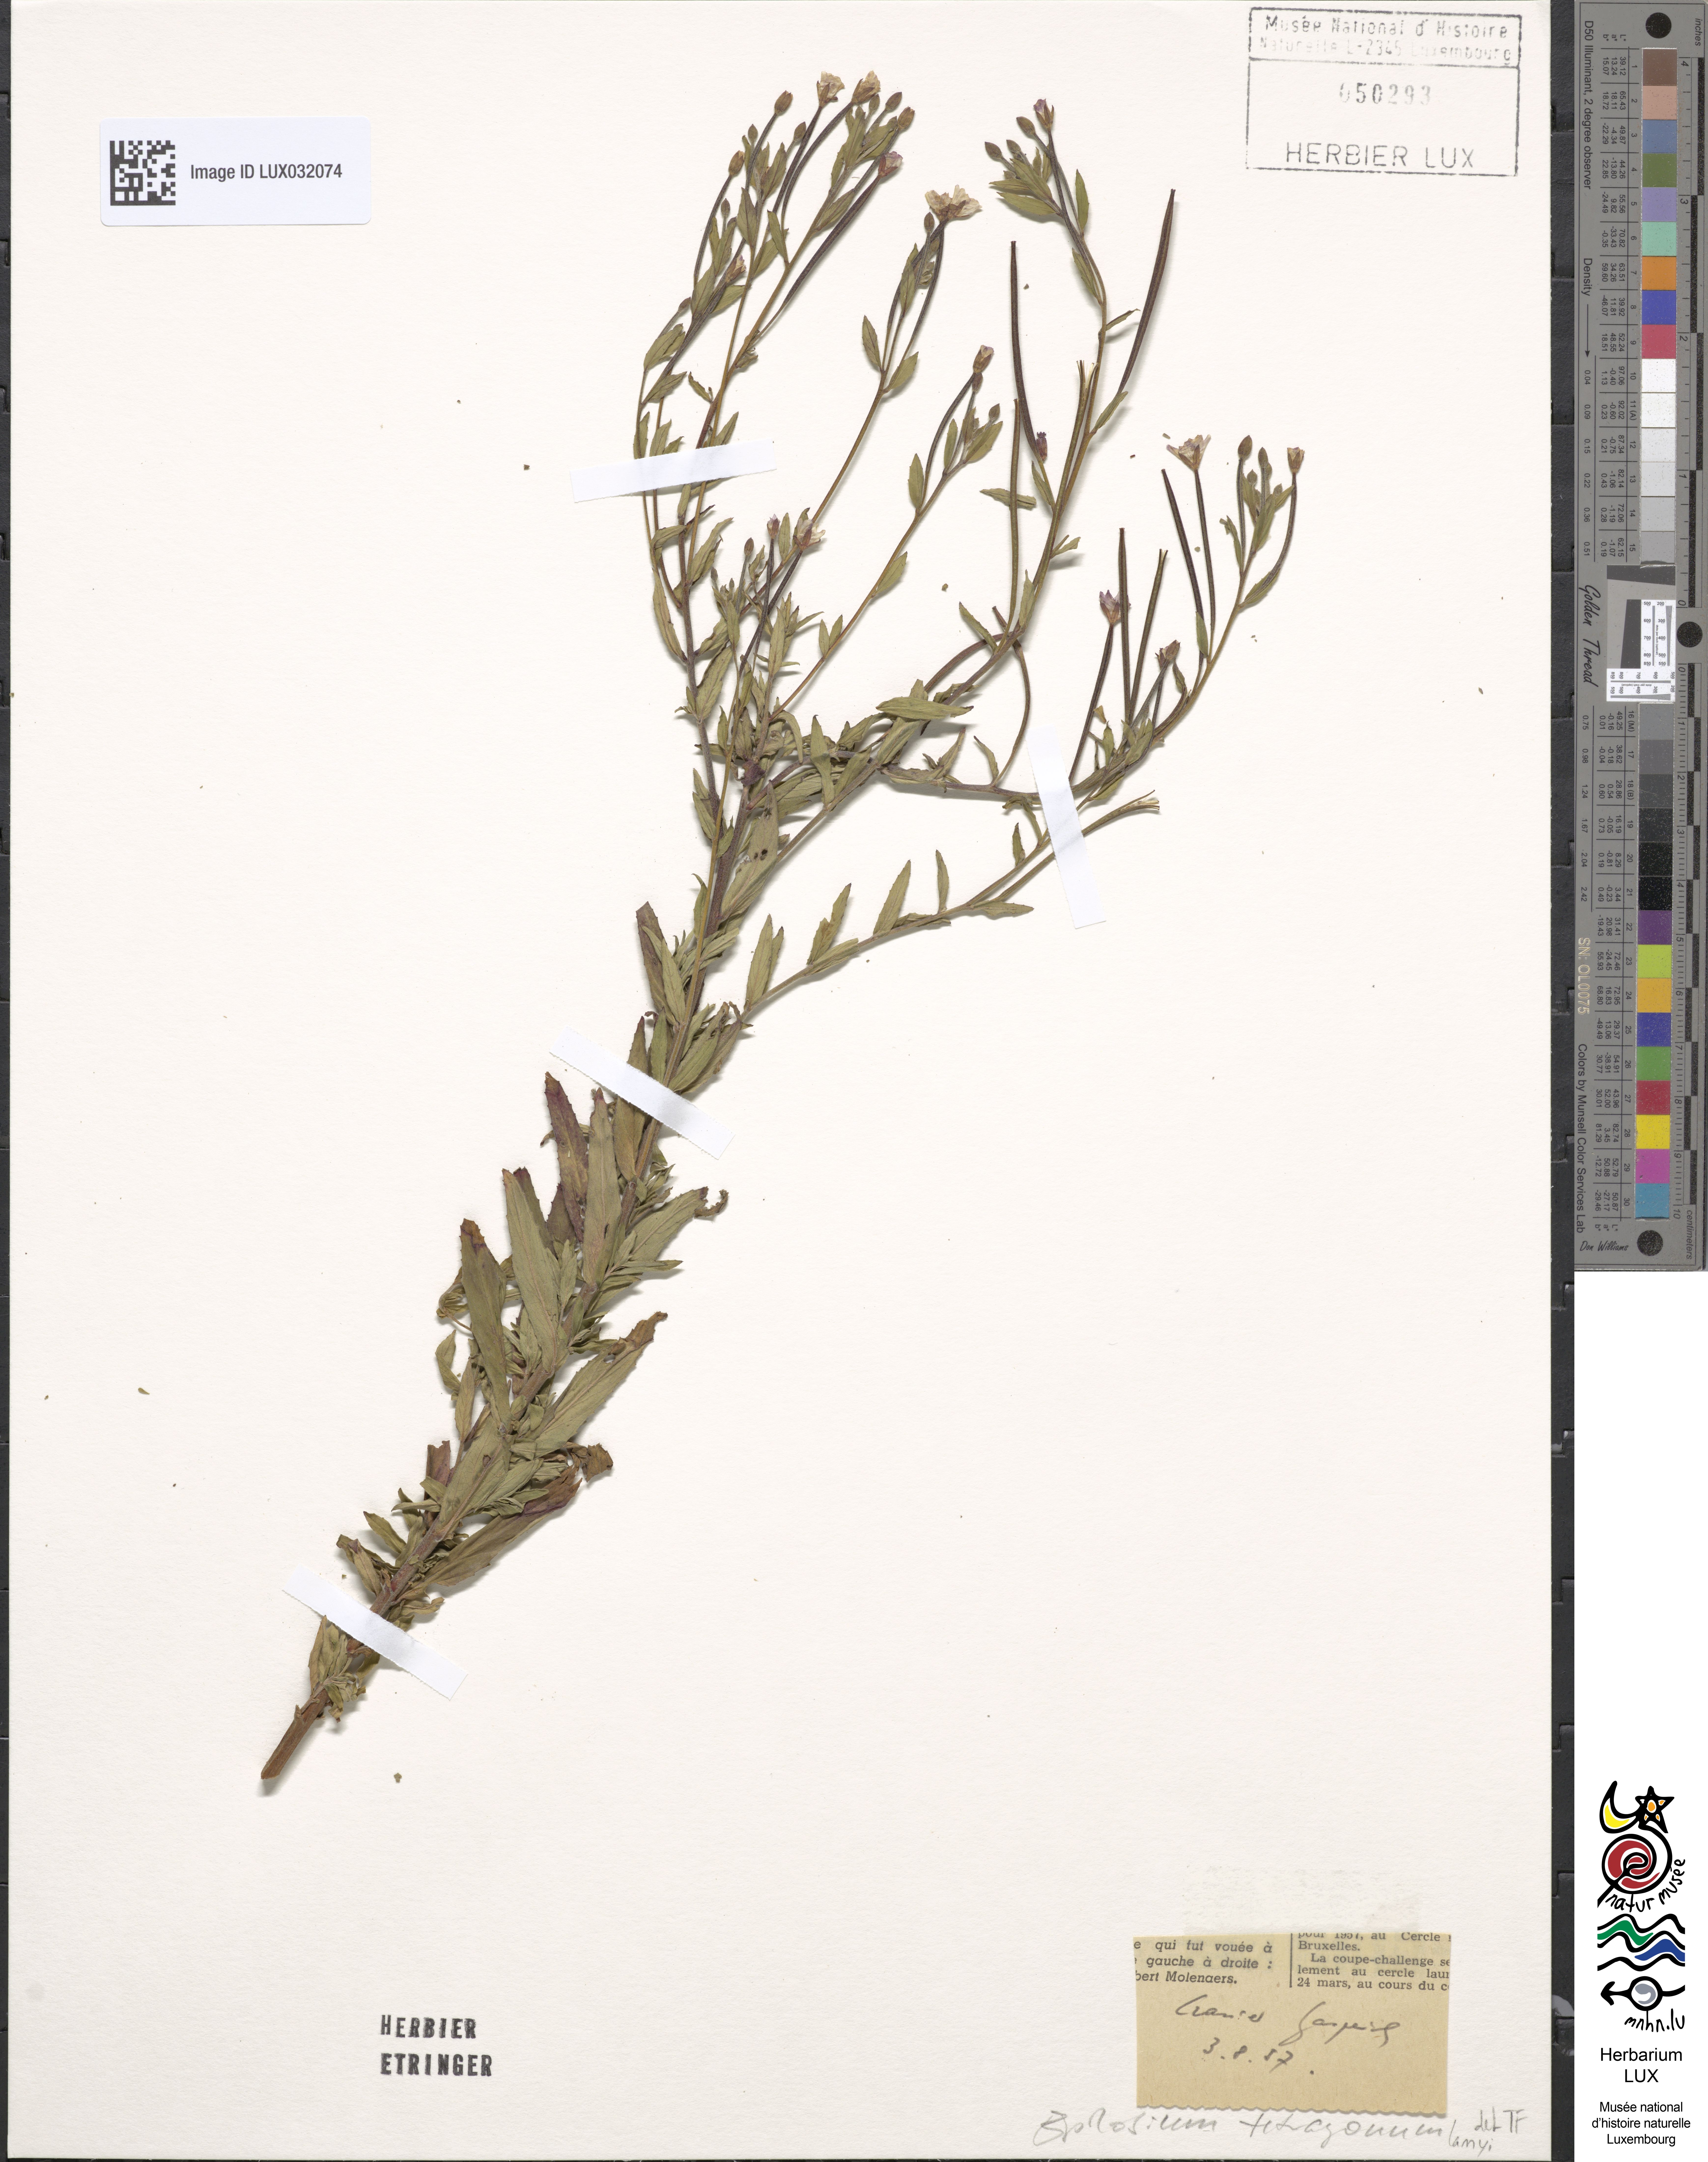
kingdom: Plantae
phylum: Tracheophyta
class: Magnoliopsida
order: Myrtales
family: Onagraceae
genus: Epilobium
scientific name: Epilobium lamyi
